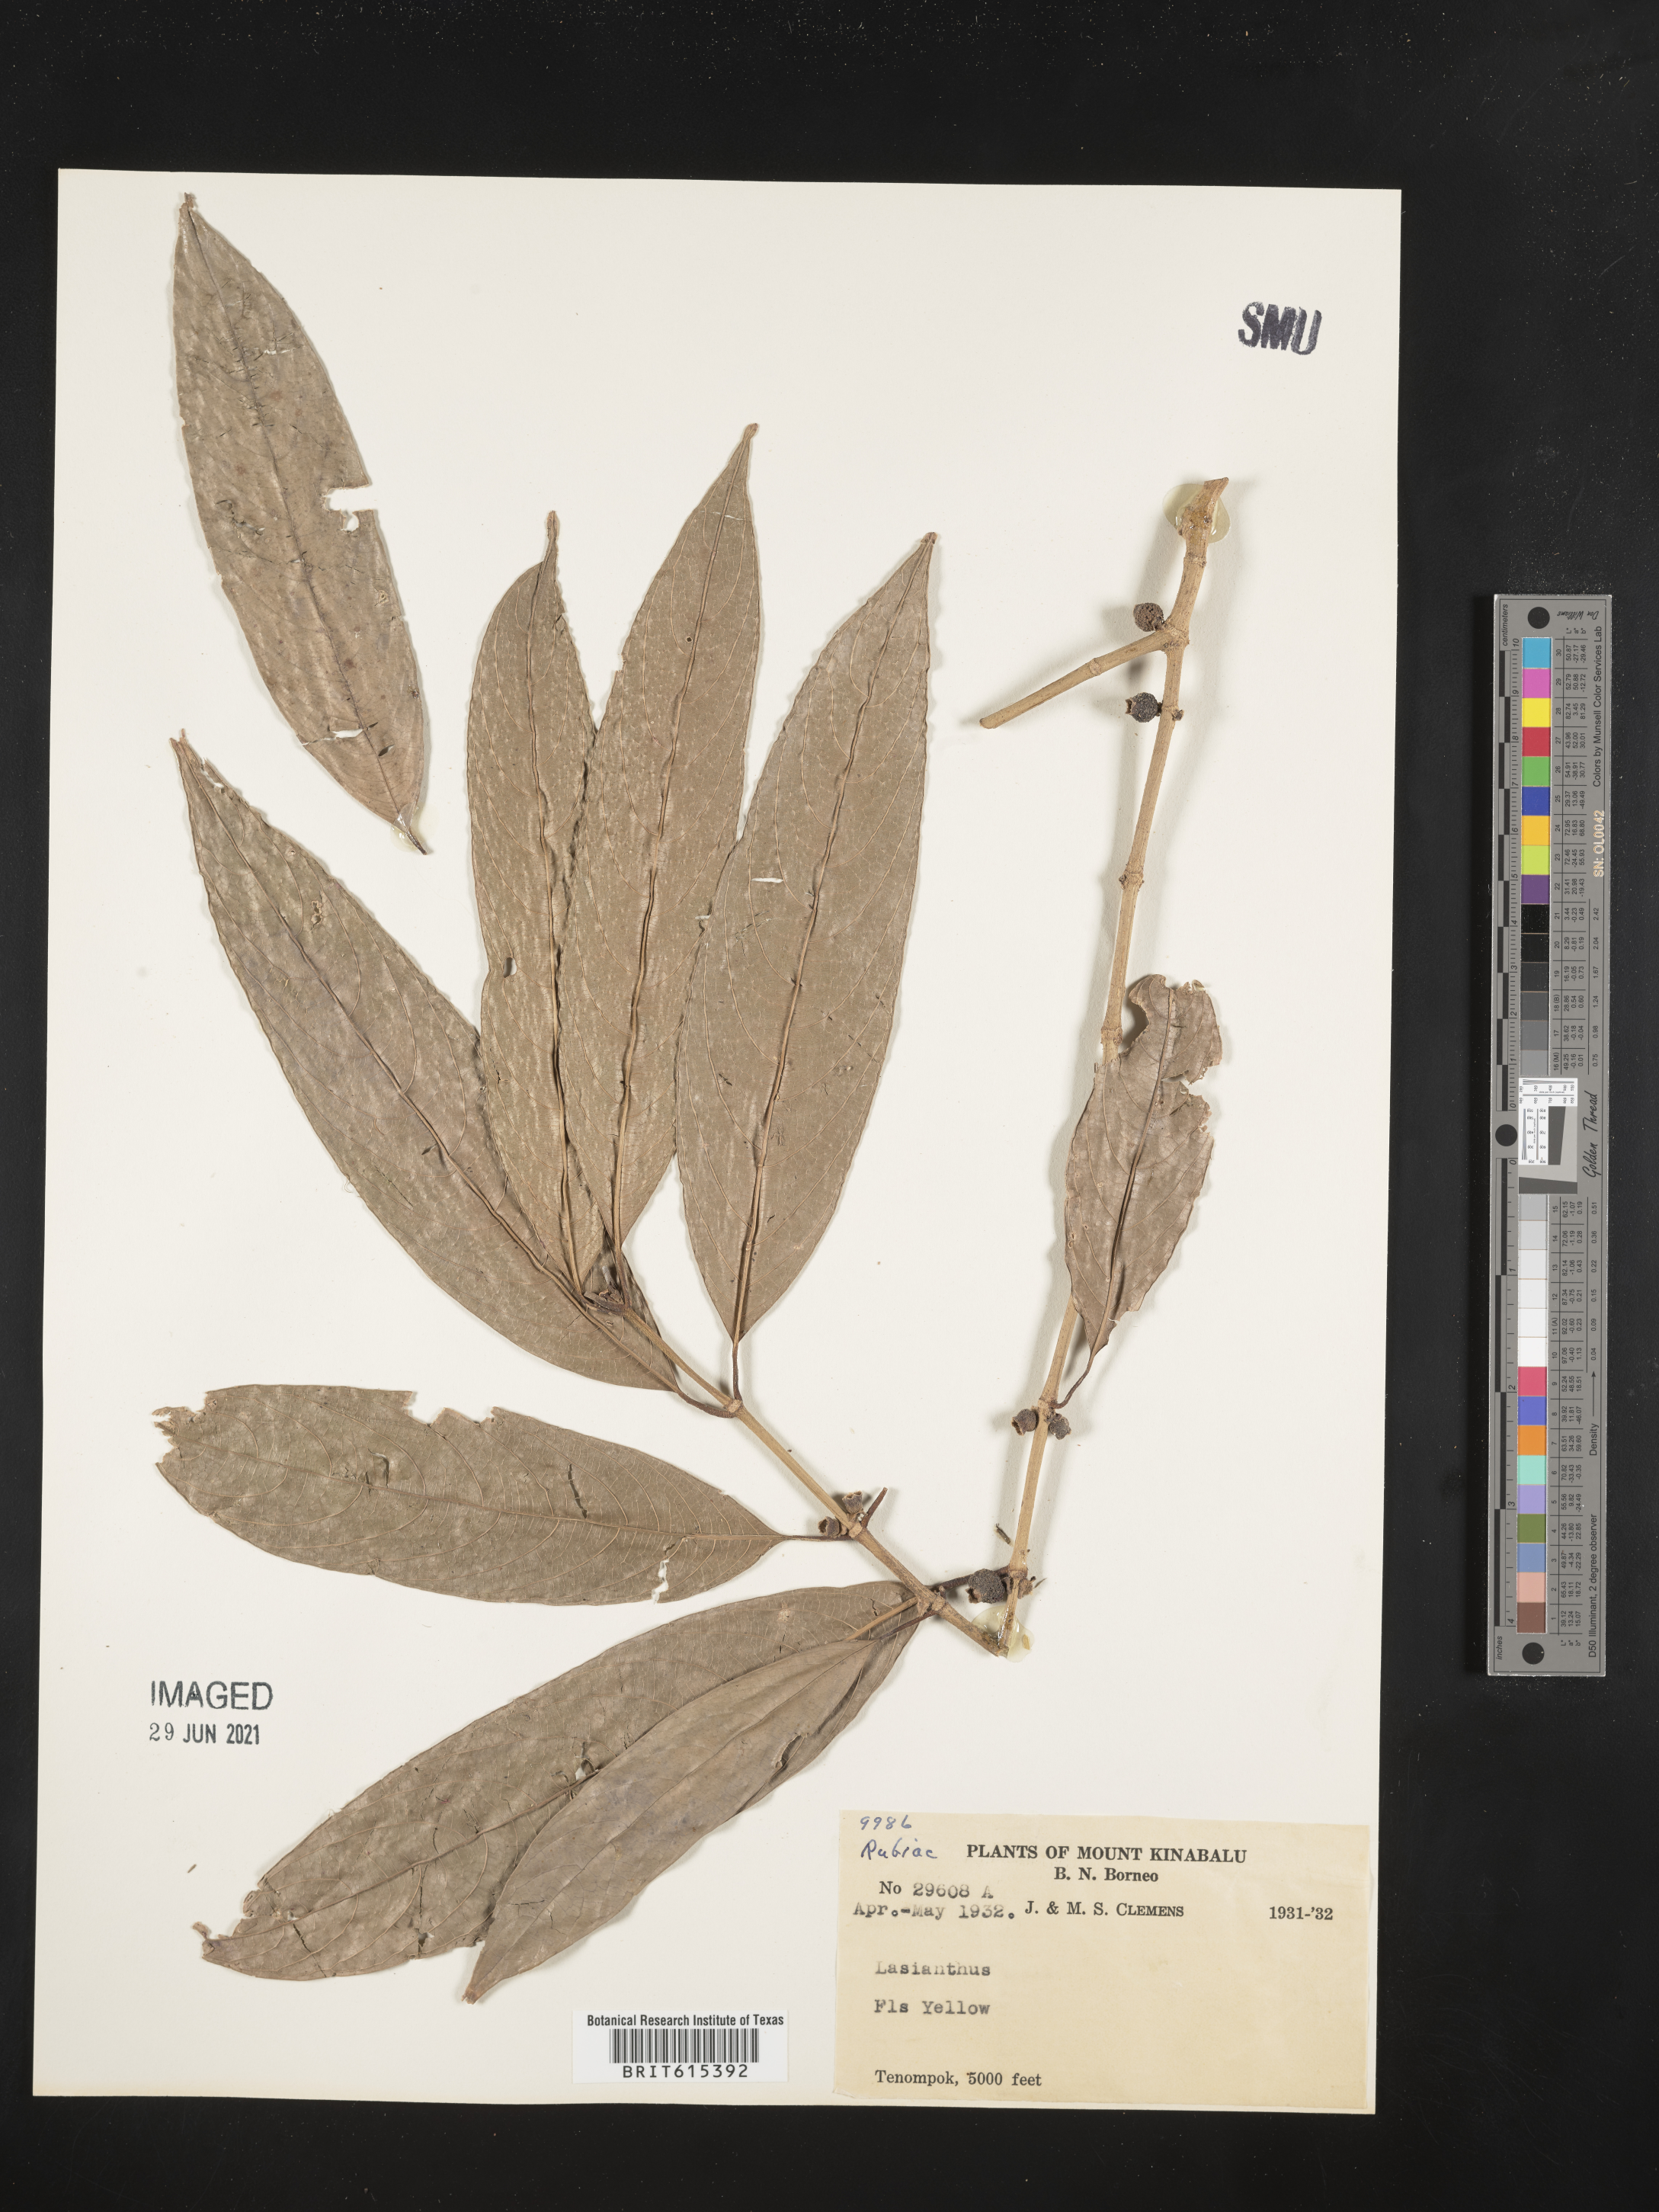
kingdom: Plantae
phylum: Tracheophyta
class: Magnoliopsida
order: Gentianales
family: Rubiaceae
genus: Lasianthus
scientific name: Lasianthus
